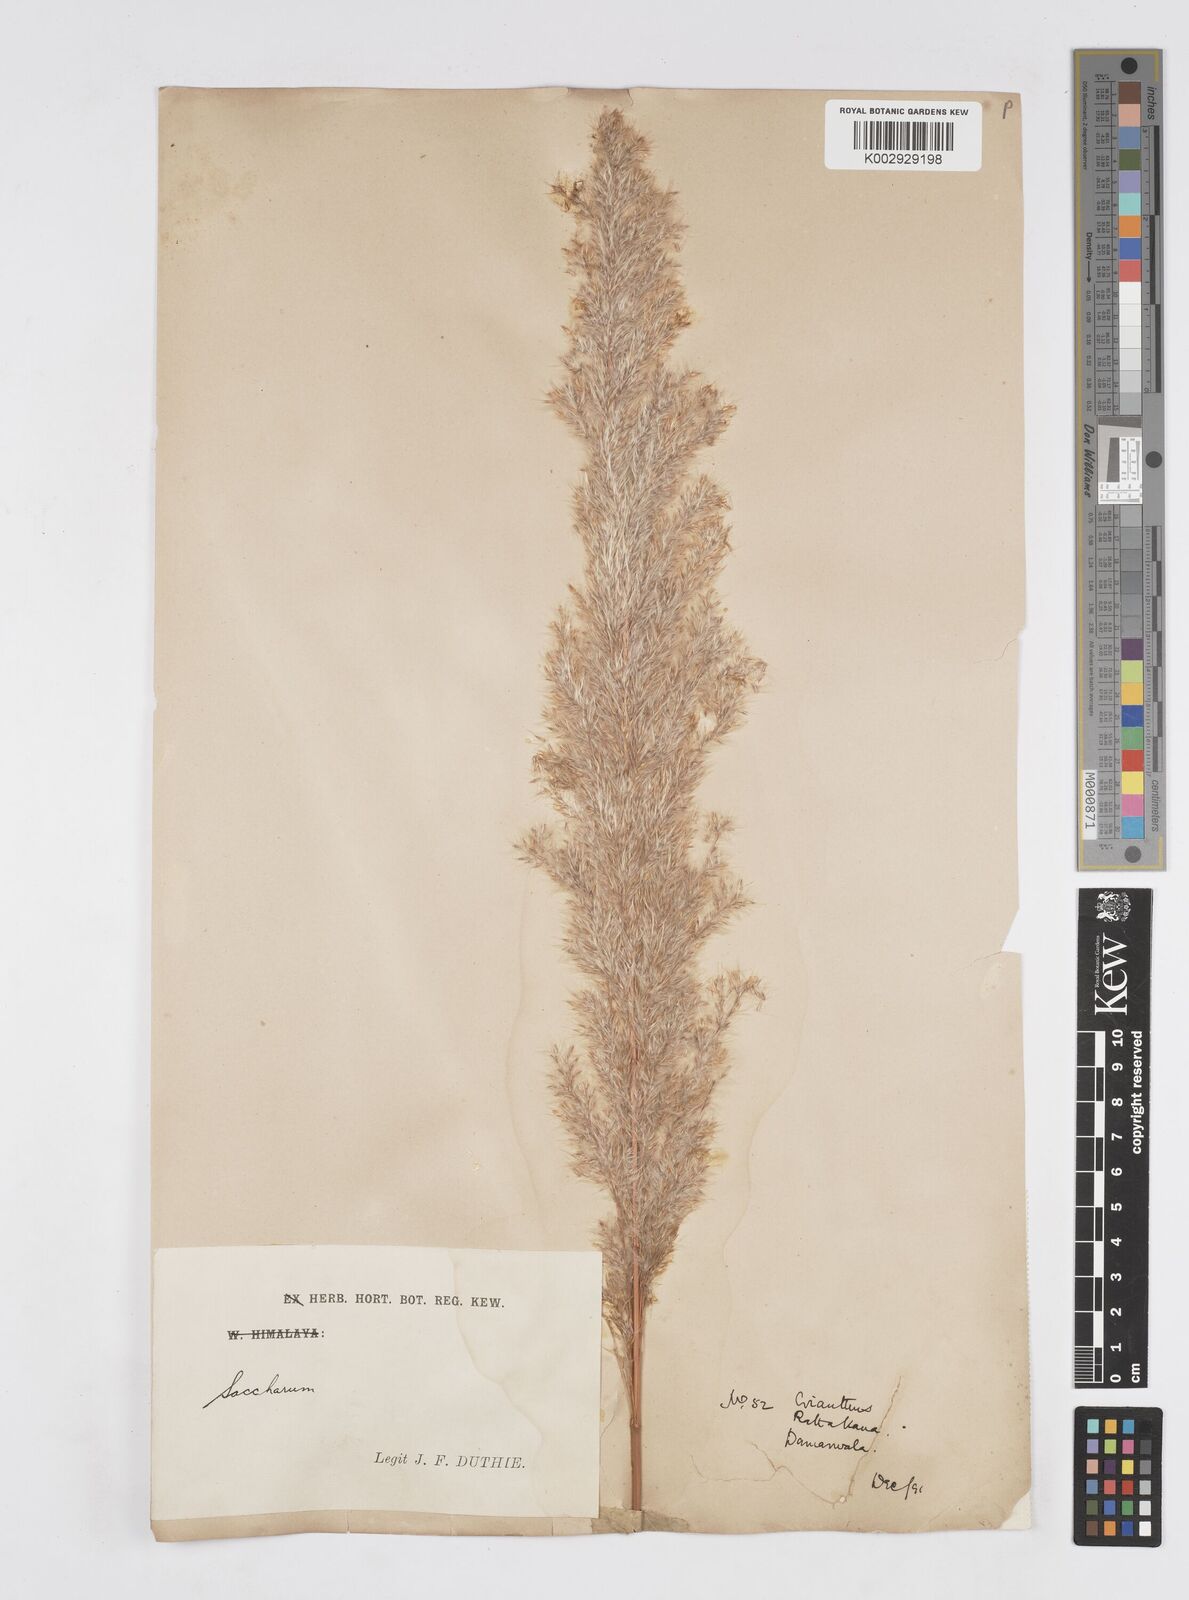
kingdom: Plantae
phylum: Tracheophyta
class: Liliopsida
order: Poales
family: Poaceae
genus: Tripidium
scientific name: Tripidium ravennae
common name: Ravenna grass
